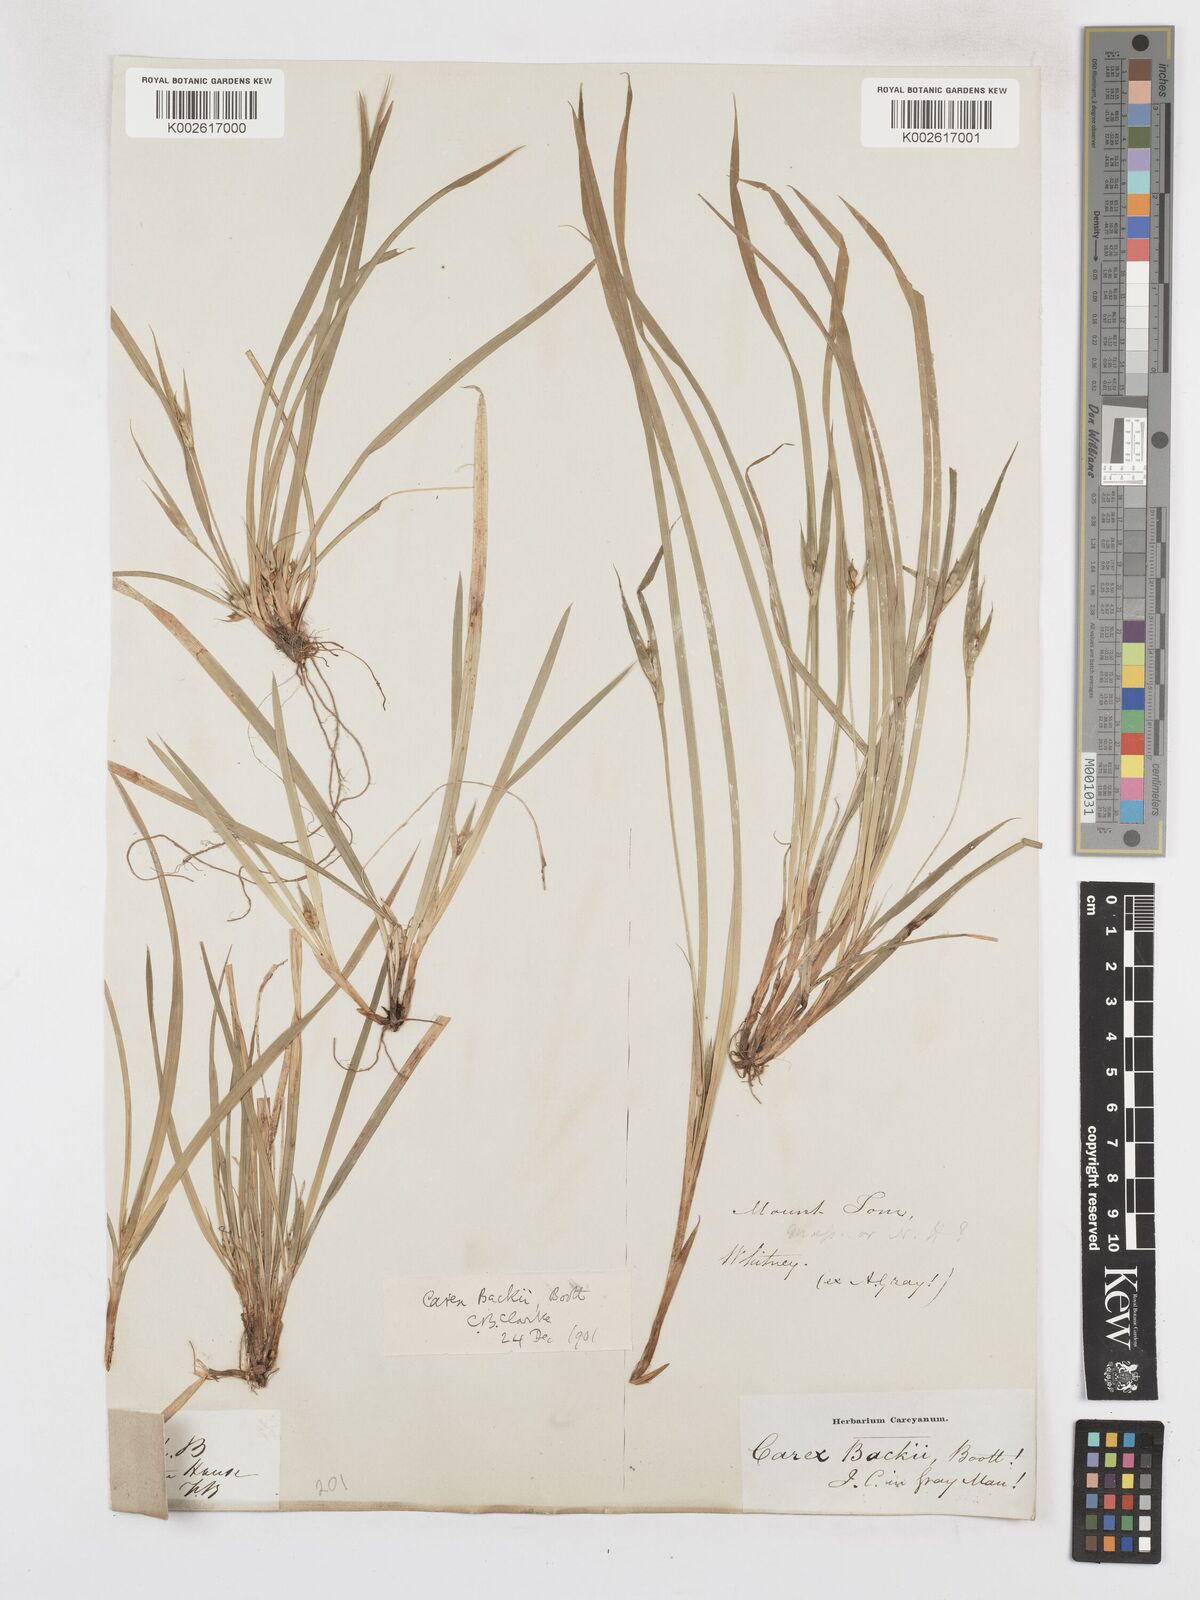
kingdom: Plantae
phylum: Tracheophyta
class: Liliopsida
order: Poales
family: Cyperaceae
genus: Carex
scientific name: Carex backii
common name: Back's sedge
